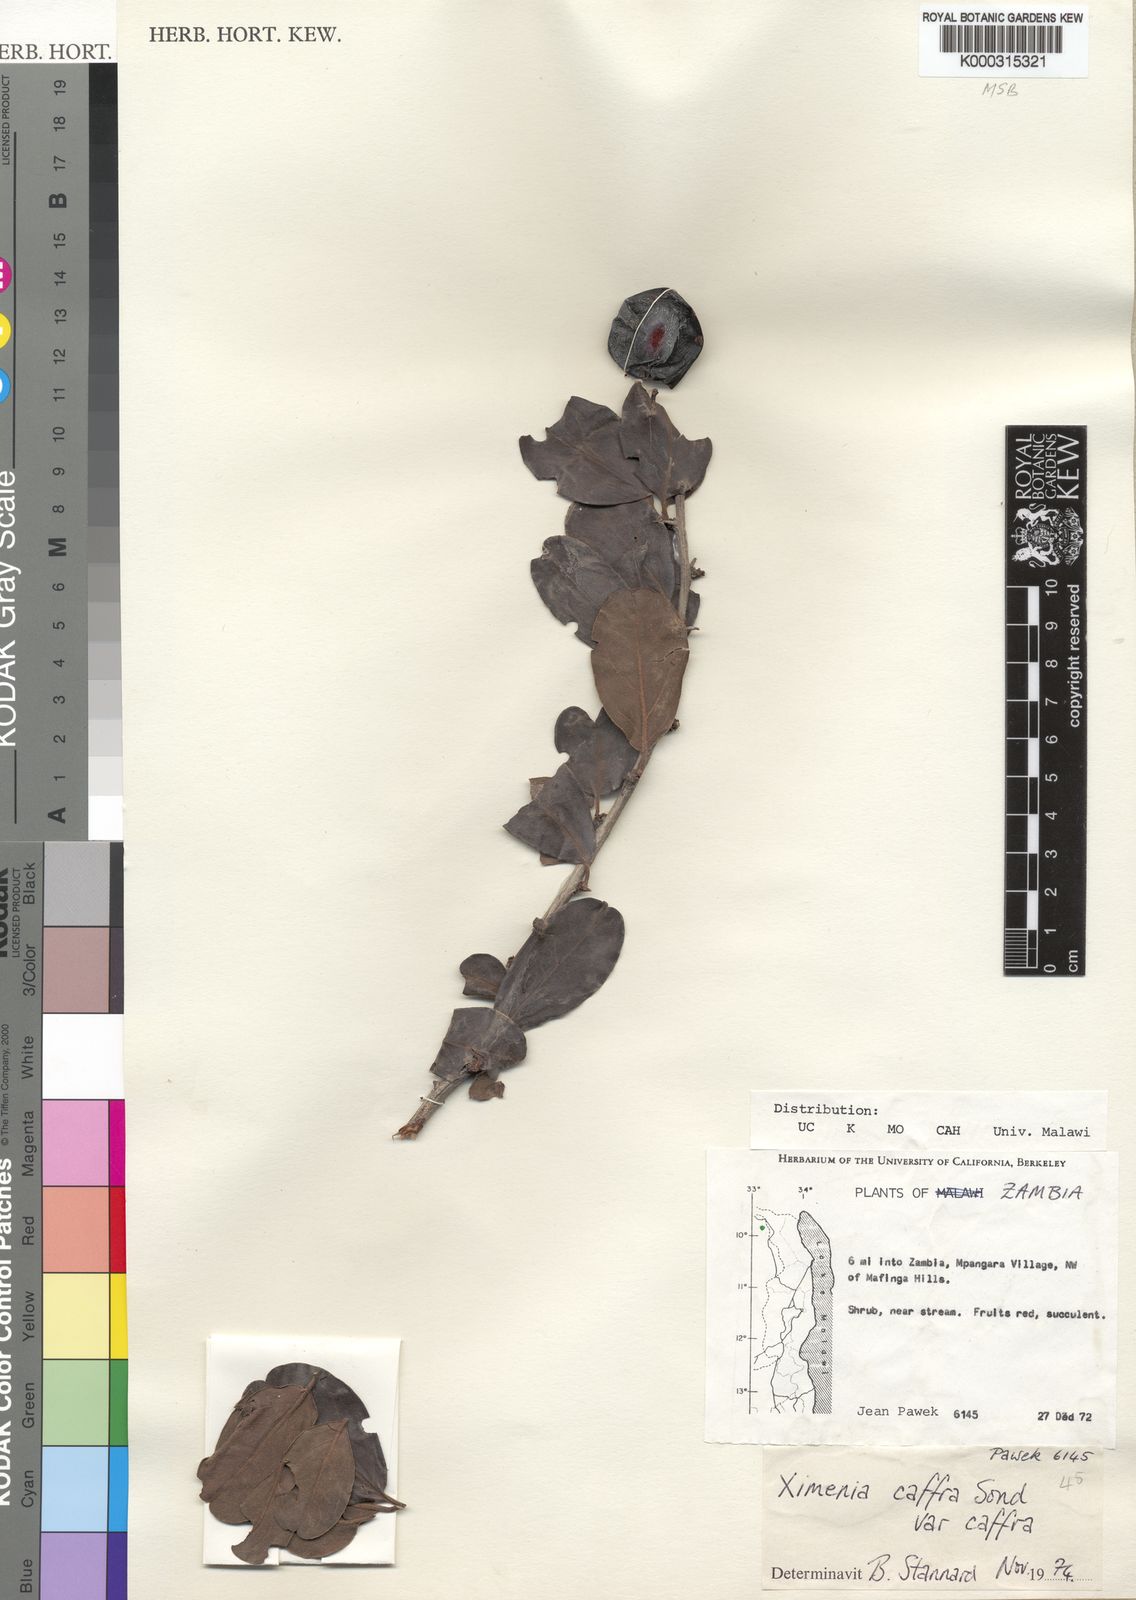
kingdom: Plantae
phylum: Tracheophyta
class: Magnoliopsida
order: Santalales
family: Ximeniaceae
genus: Ximenia
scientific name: Ximenia caffra
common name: Large sourplum
